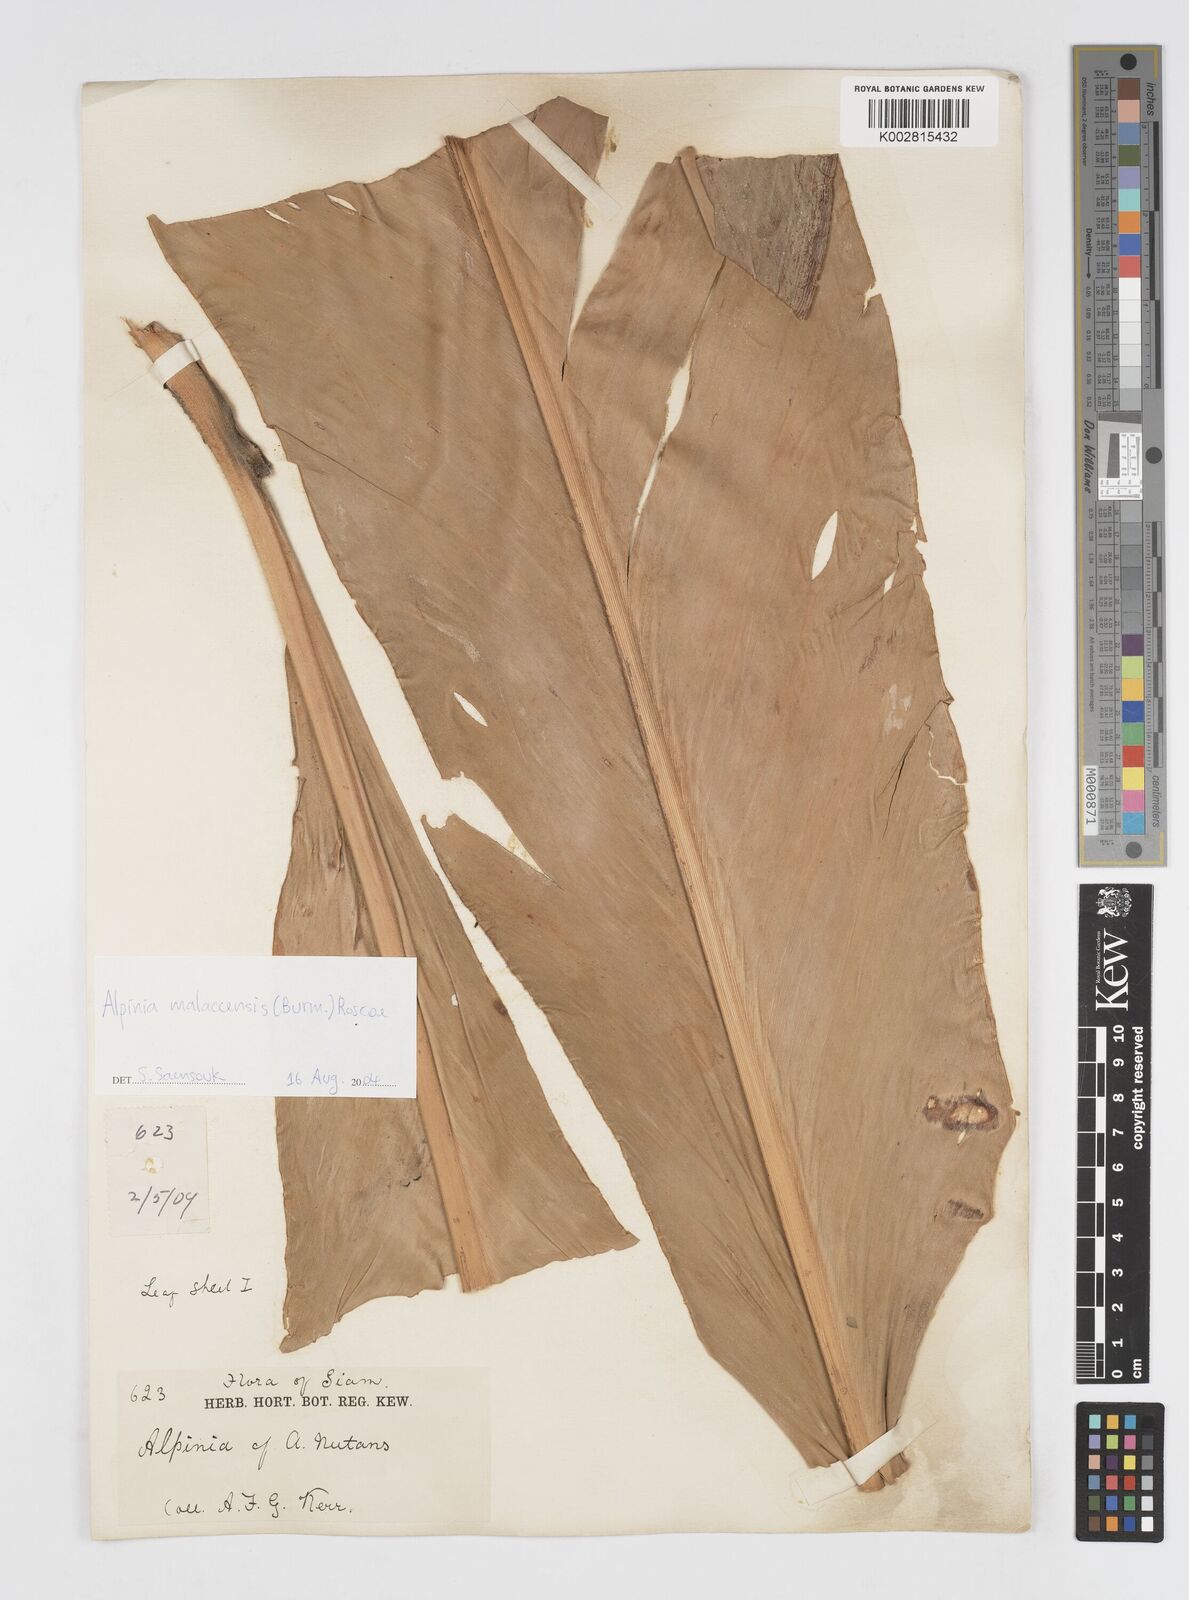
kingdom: Plantae
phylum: Tracheophyta
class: Liliopsida
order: Zingiberales
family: Zingiberaceae
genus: Alpinia
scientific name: Alpinia malaccensis
